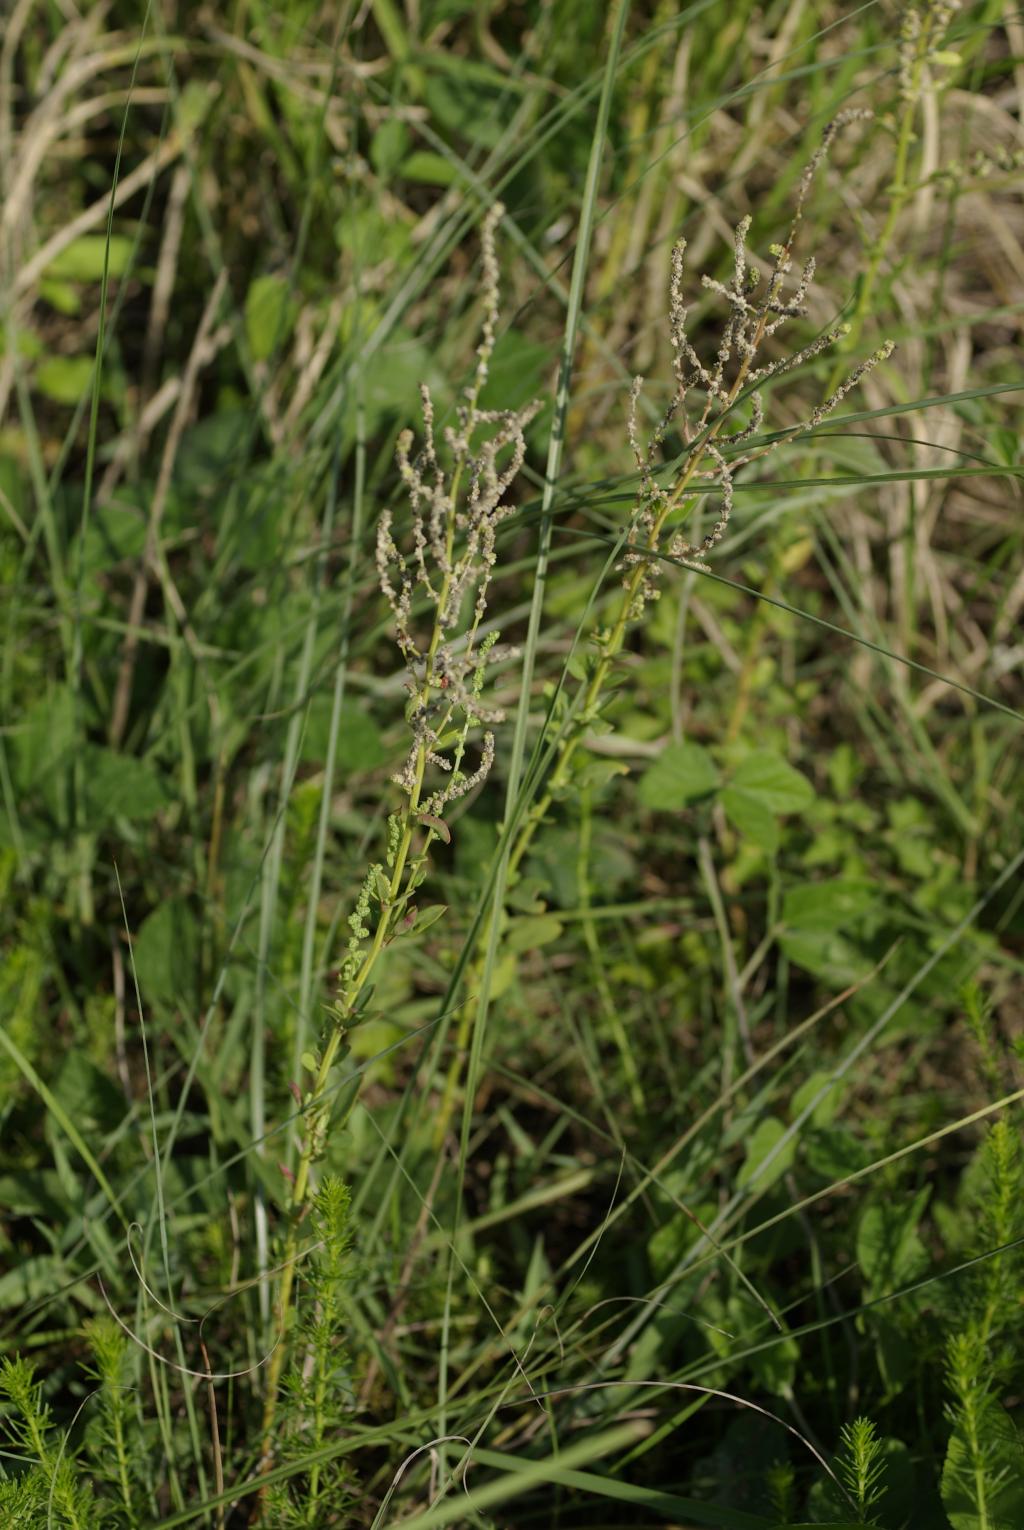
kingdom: Plantae
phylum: Tracheophyta
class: Magnoliopsida
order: Caryophyllales
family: Amaranthaceae
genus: Chenopodium
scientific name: Chenopodium acuminatum
